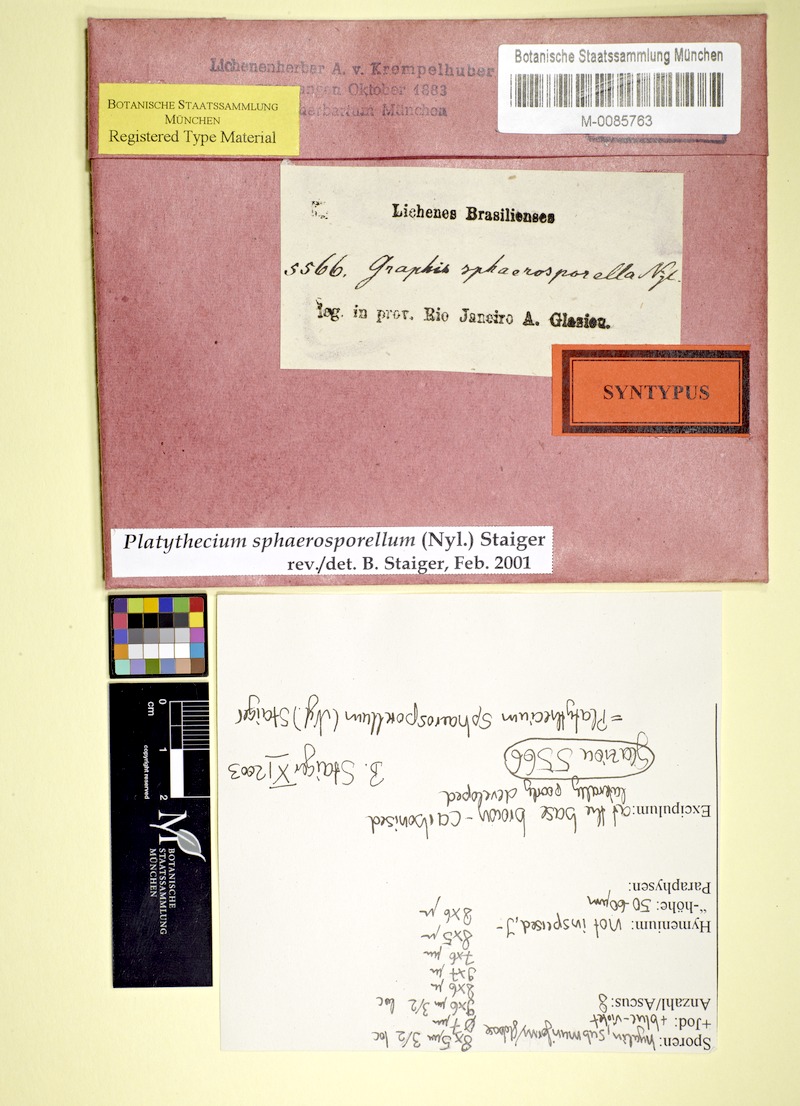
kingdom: Fungi
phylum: Ascomycota
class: Lecanoromycetes
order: Ostropales
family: Graphidaceae
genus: Platythecium
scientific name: Platythecium sphaerosporellum
